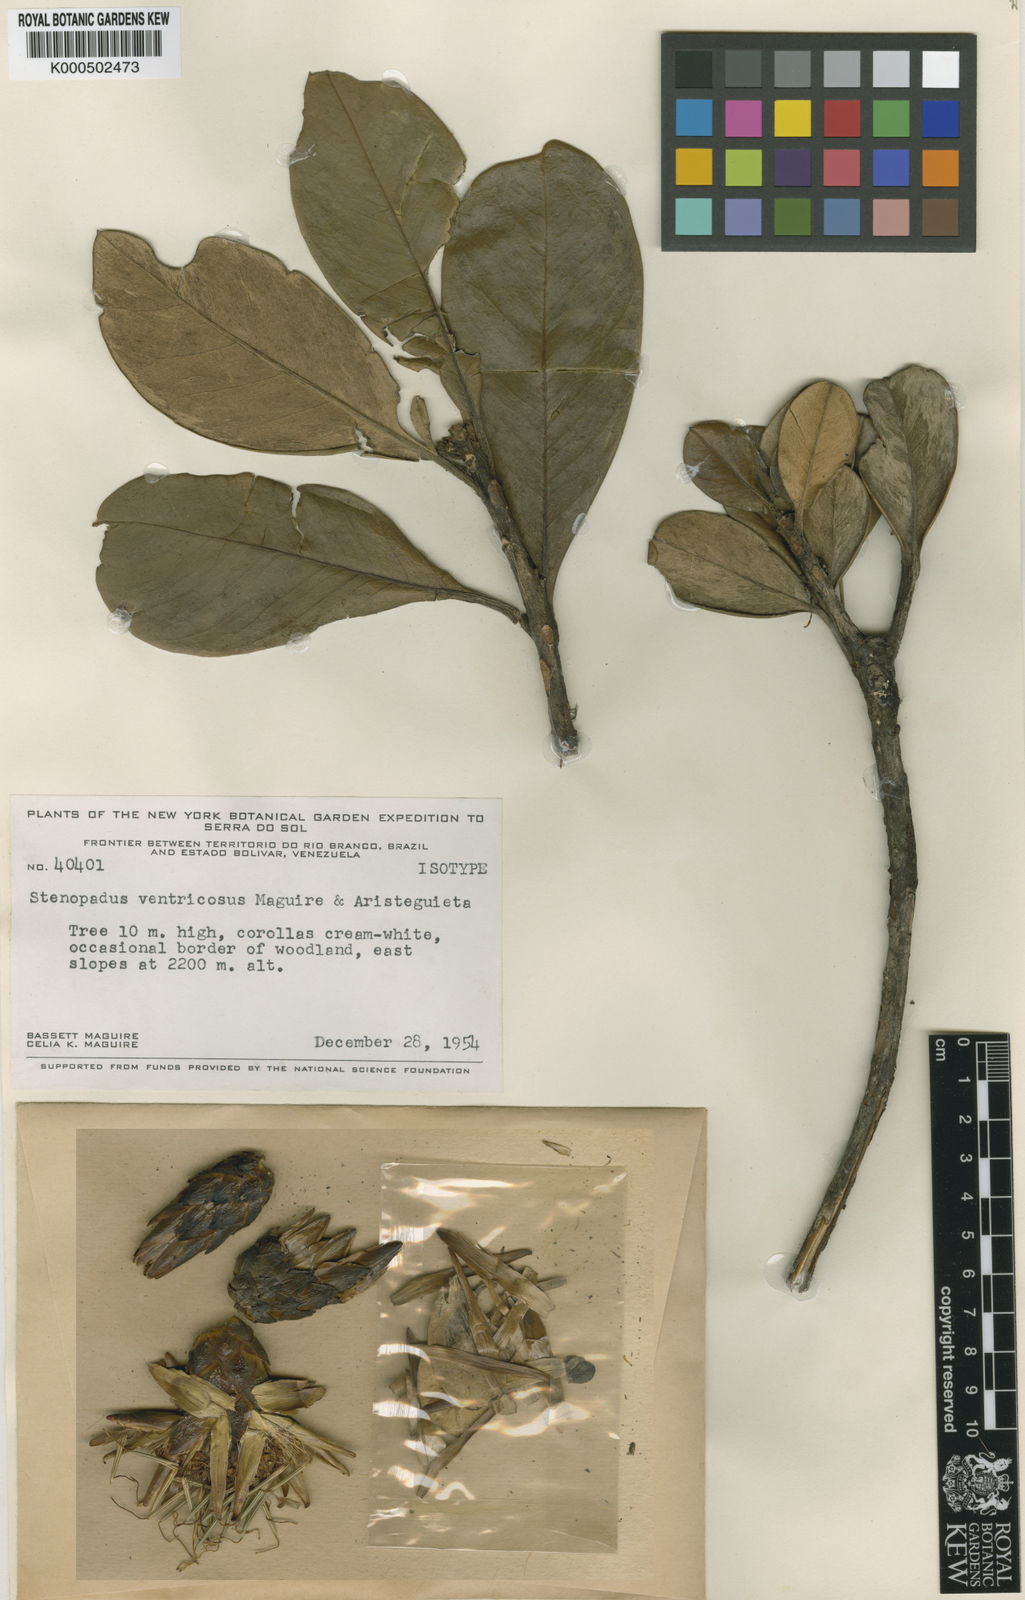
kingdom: Plantae
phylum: Tracheophyta
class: Magnoliopsida
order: Asterales
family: Asteraceae
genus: Stenopadus
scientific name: Stenopadus sericeus
